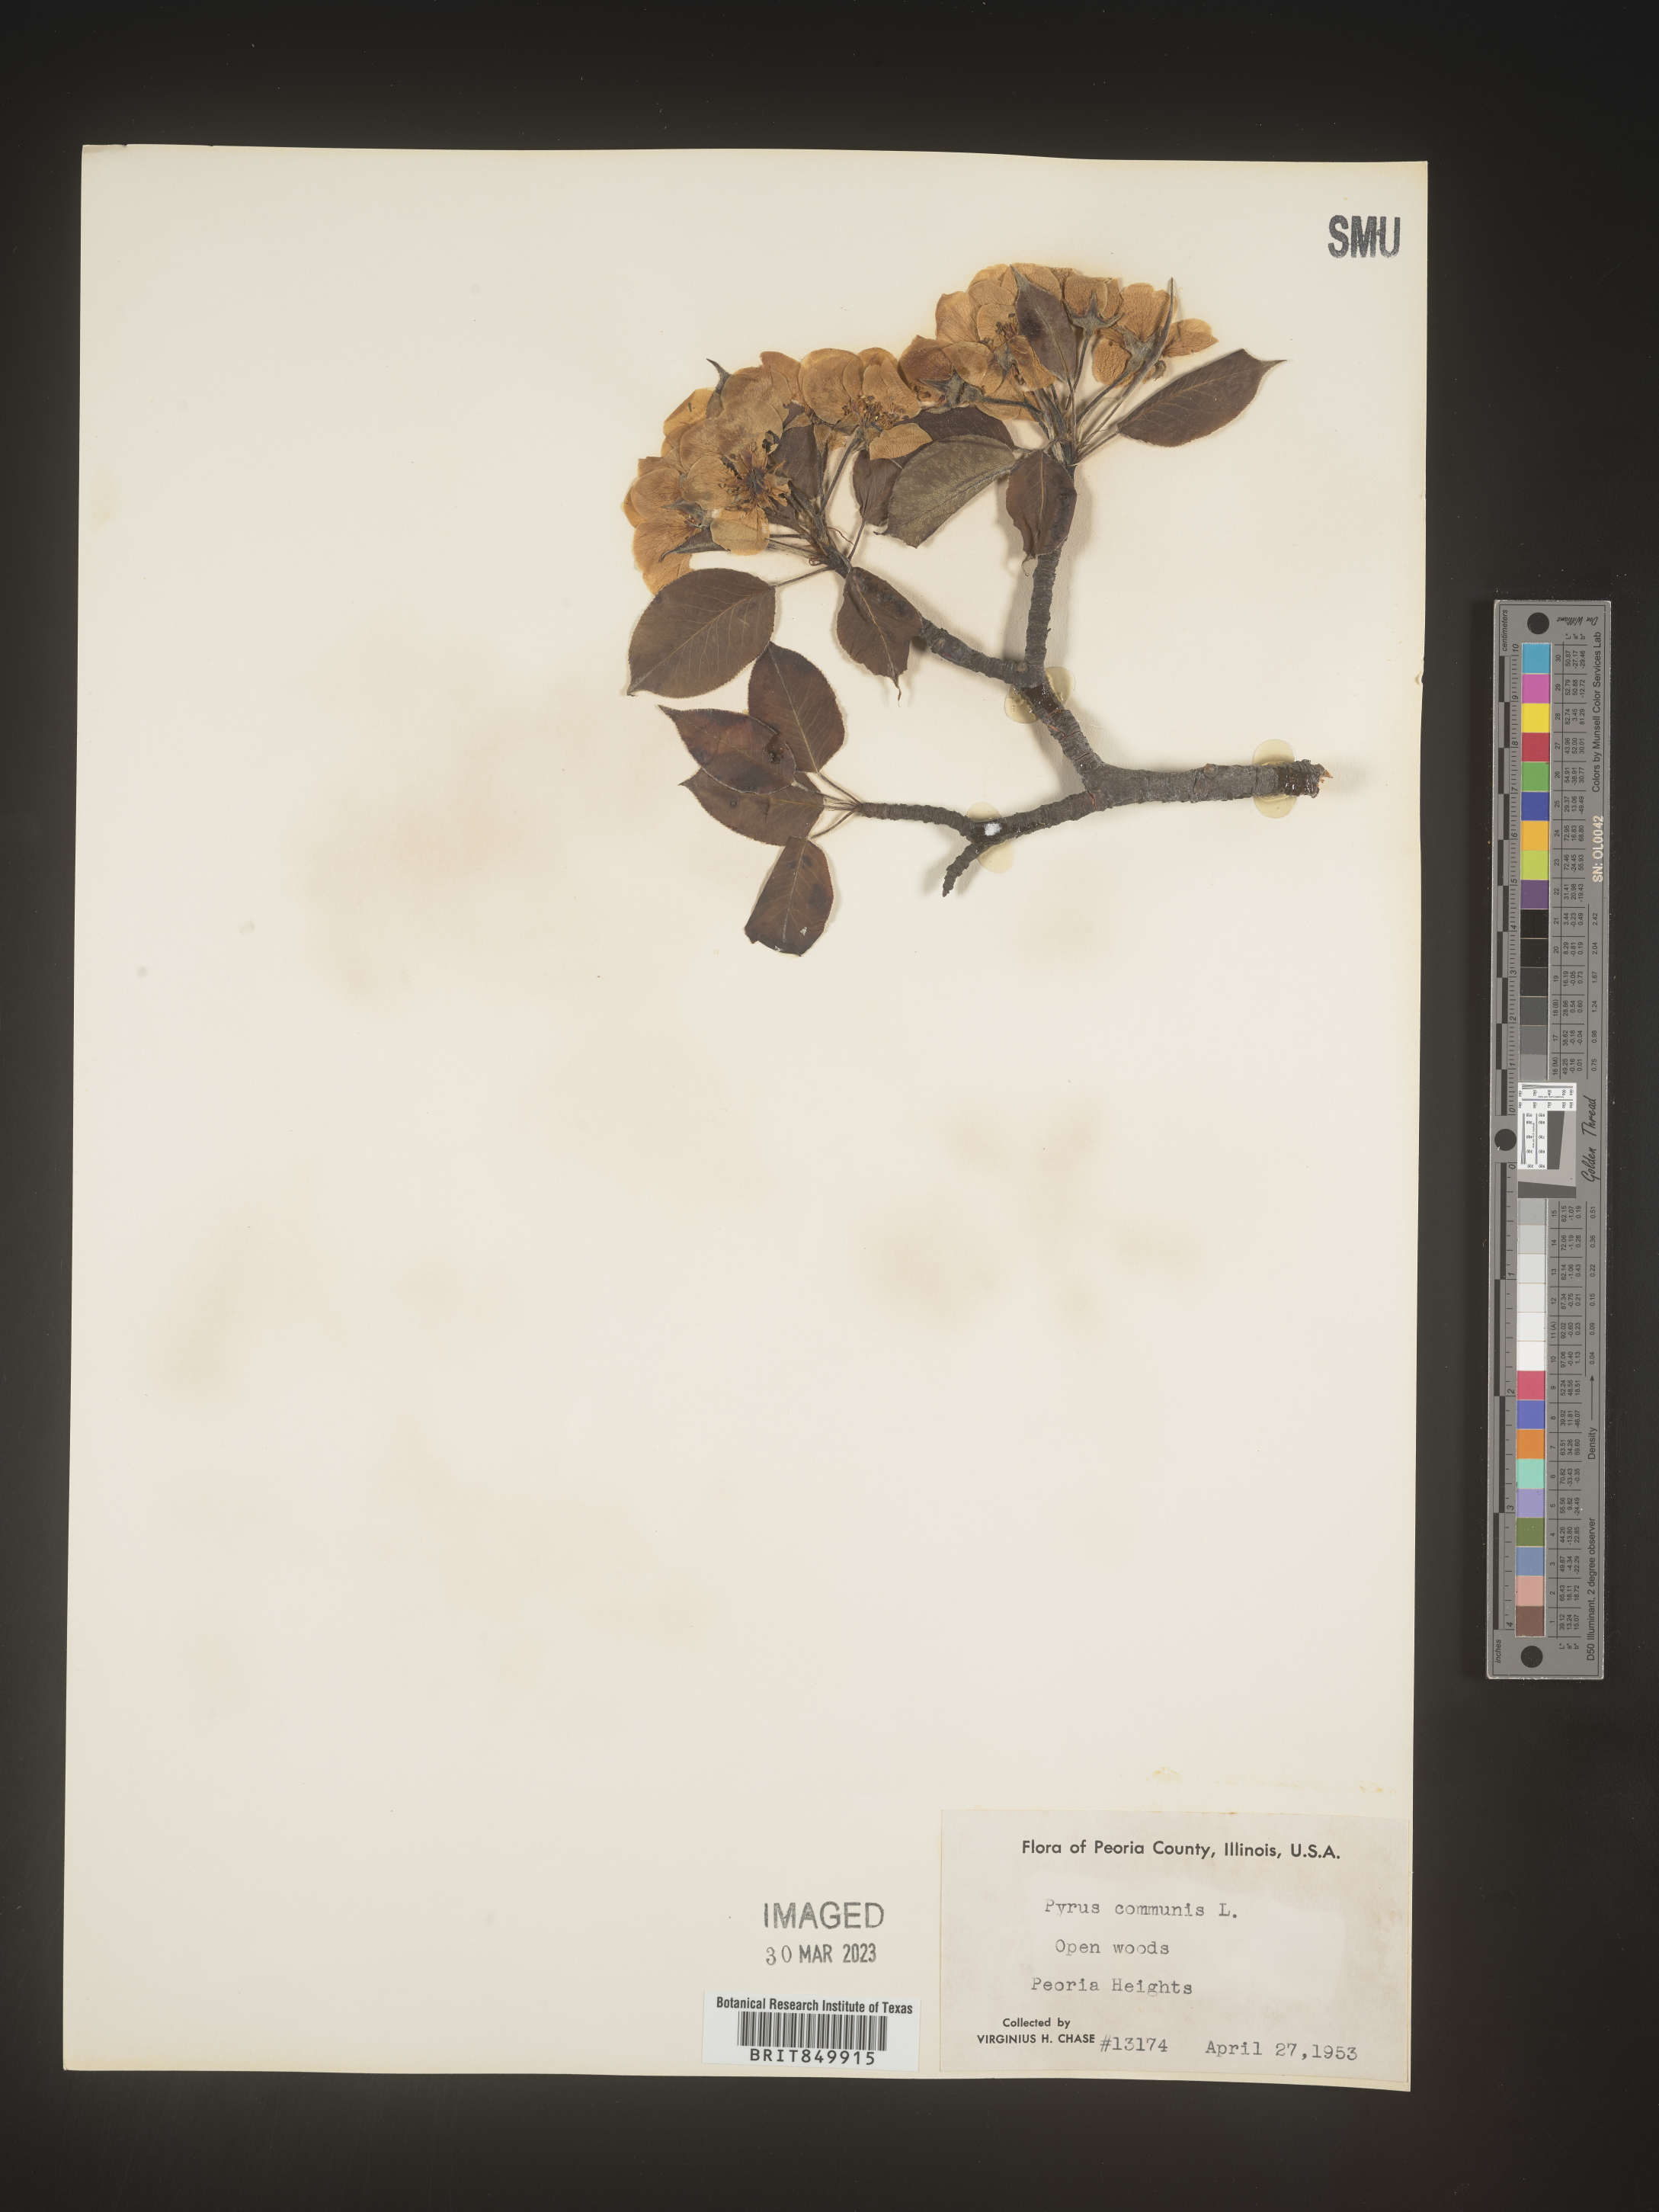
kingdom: Plantae
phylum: Tracheophyta
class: Magnoliopsida
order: Rosales
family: Rosaceae
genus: Pyrus
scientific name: Pyrus
